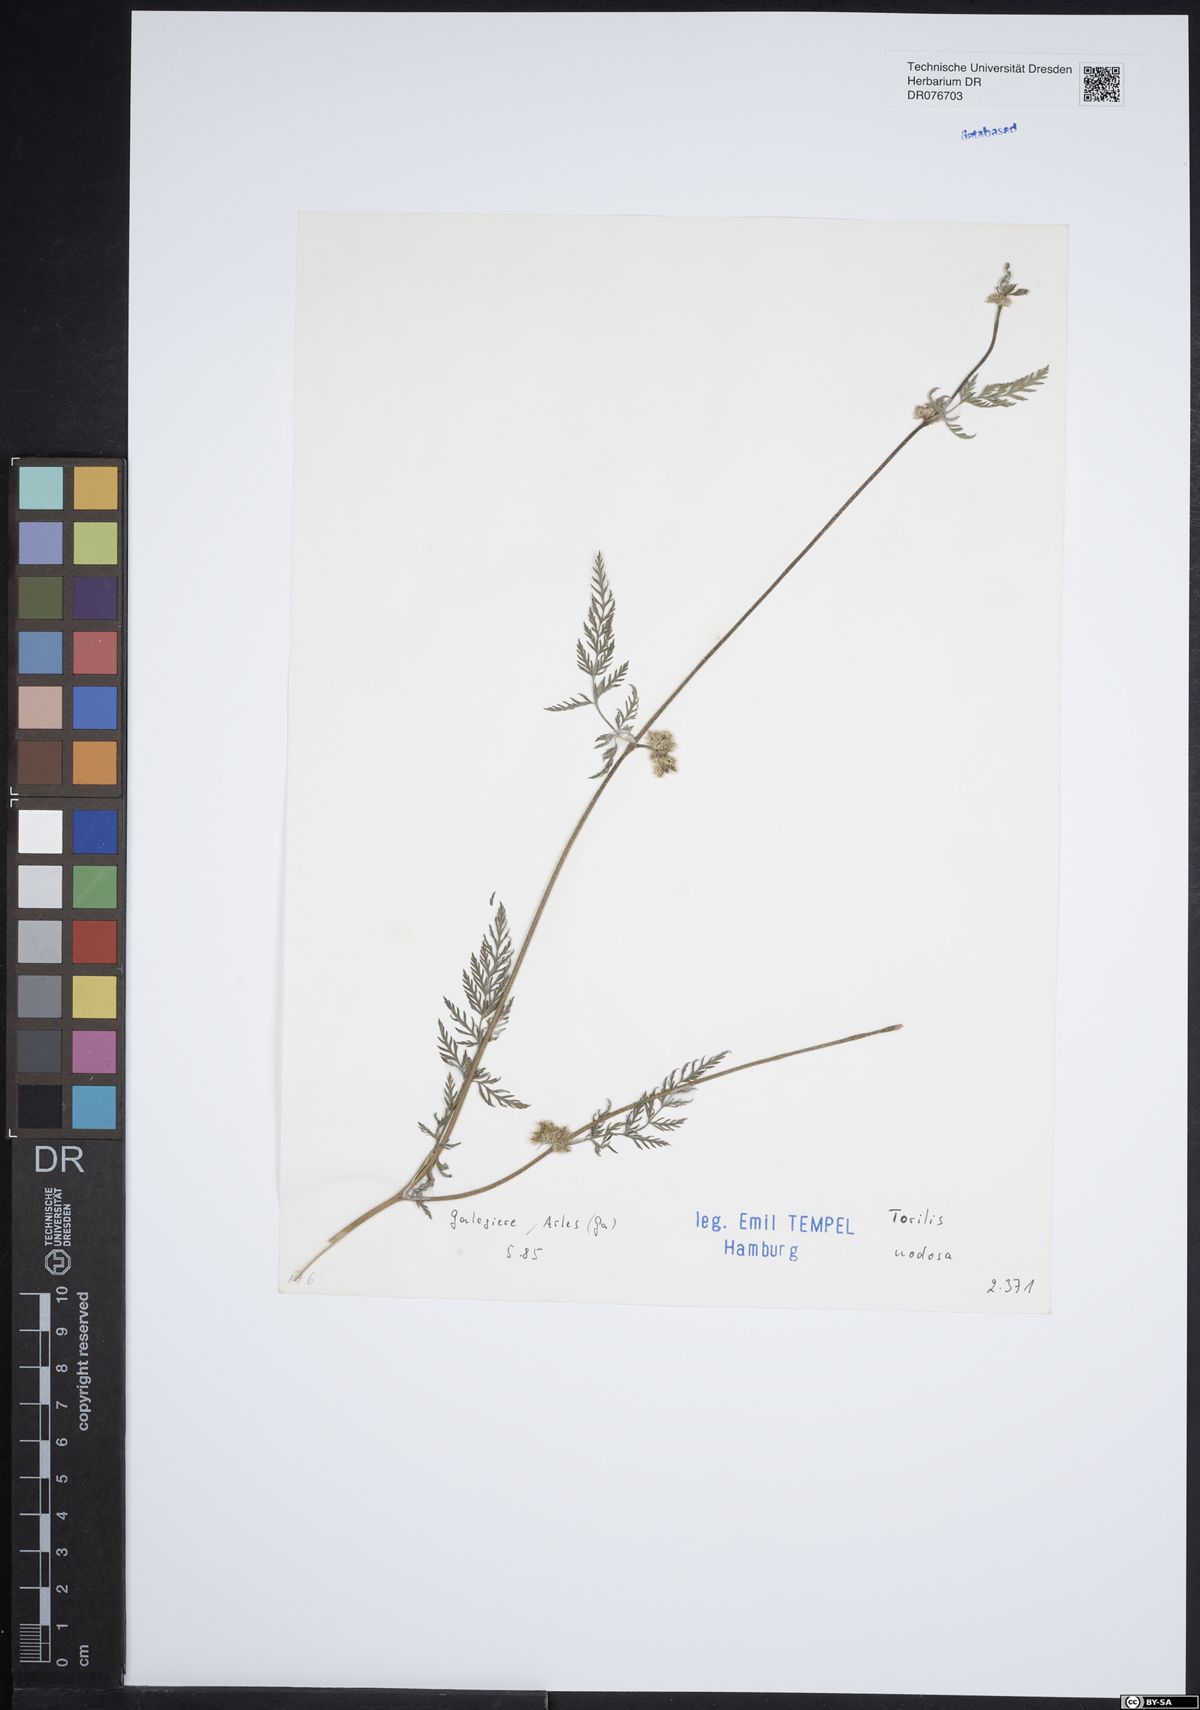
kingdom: Plantae
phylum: Tracheophyta
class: Magnoliopsida
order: Apiales
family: Apiaceae
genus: Torilis
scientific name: Torilis nodosa
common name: Knotted hedge-parsley
